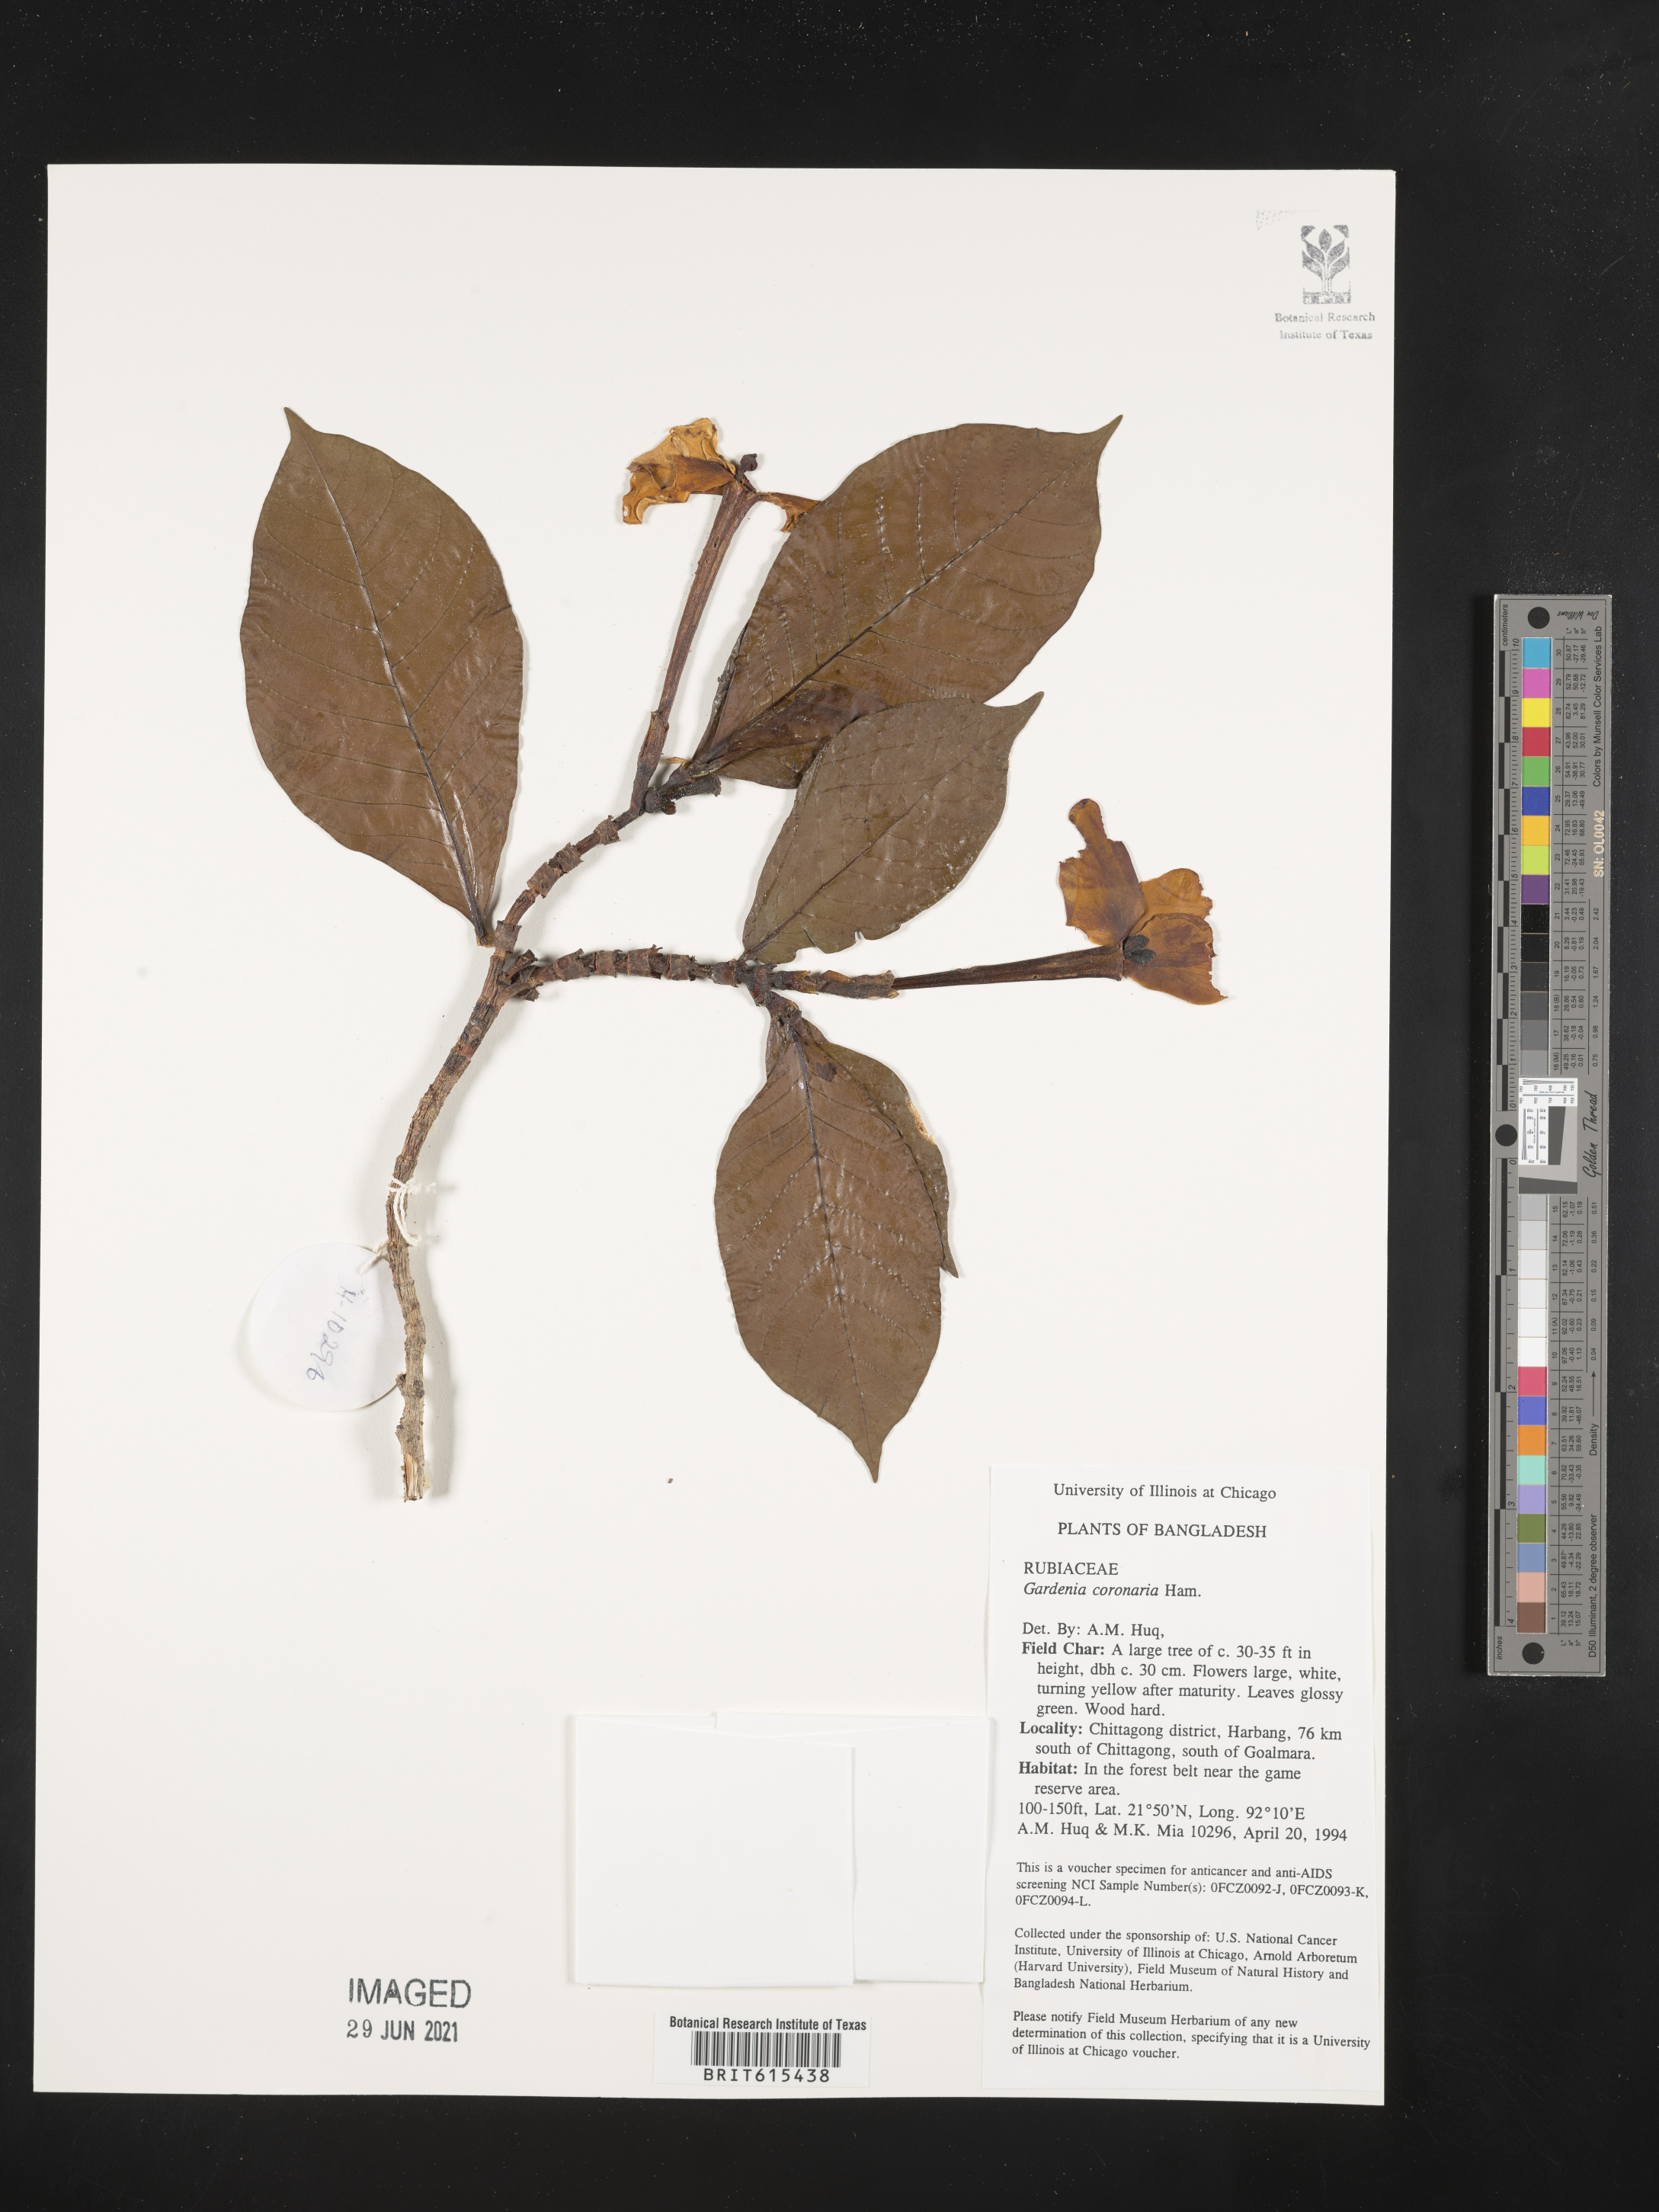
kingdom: Plantae
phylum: Tracheophyta
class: Magnoliopsida
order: Gentianales
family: Rubiaceae
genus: Gardenia
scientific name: Gardenia coronaria
